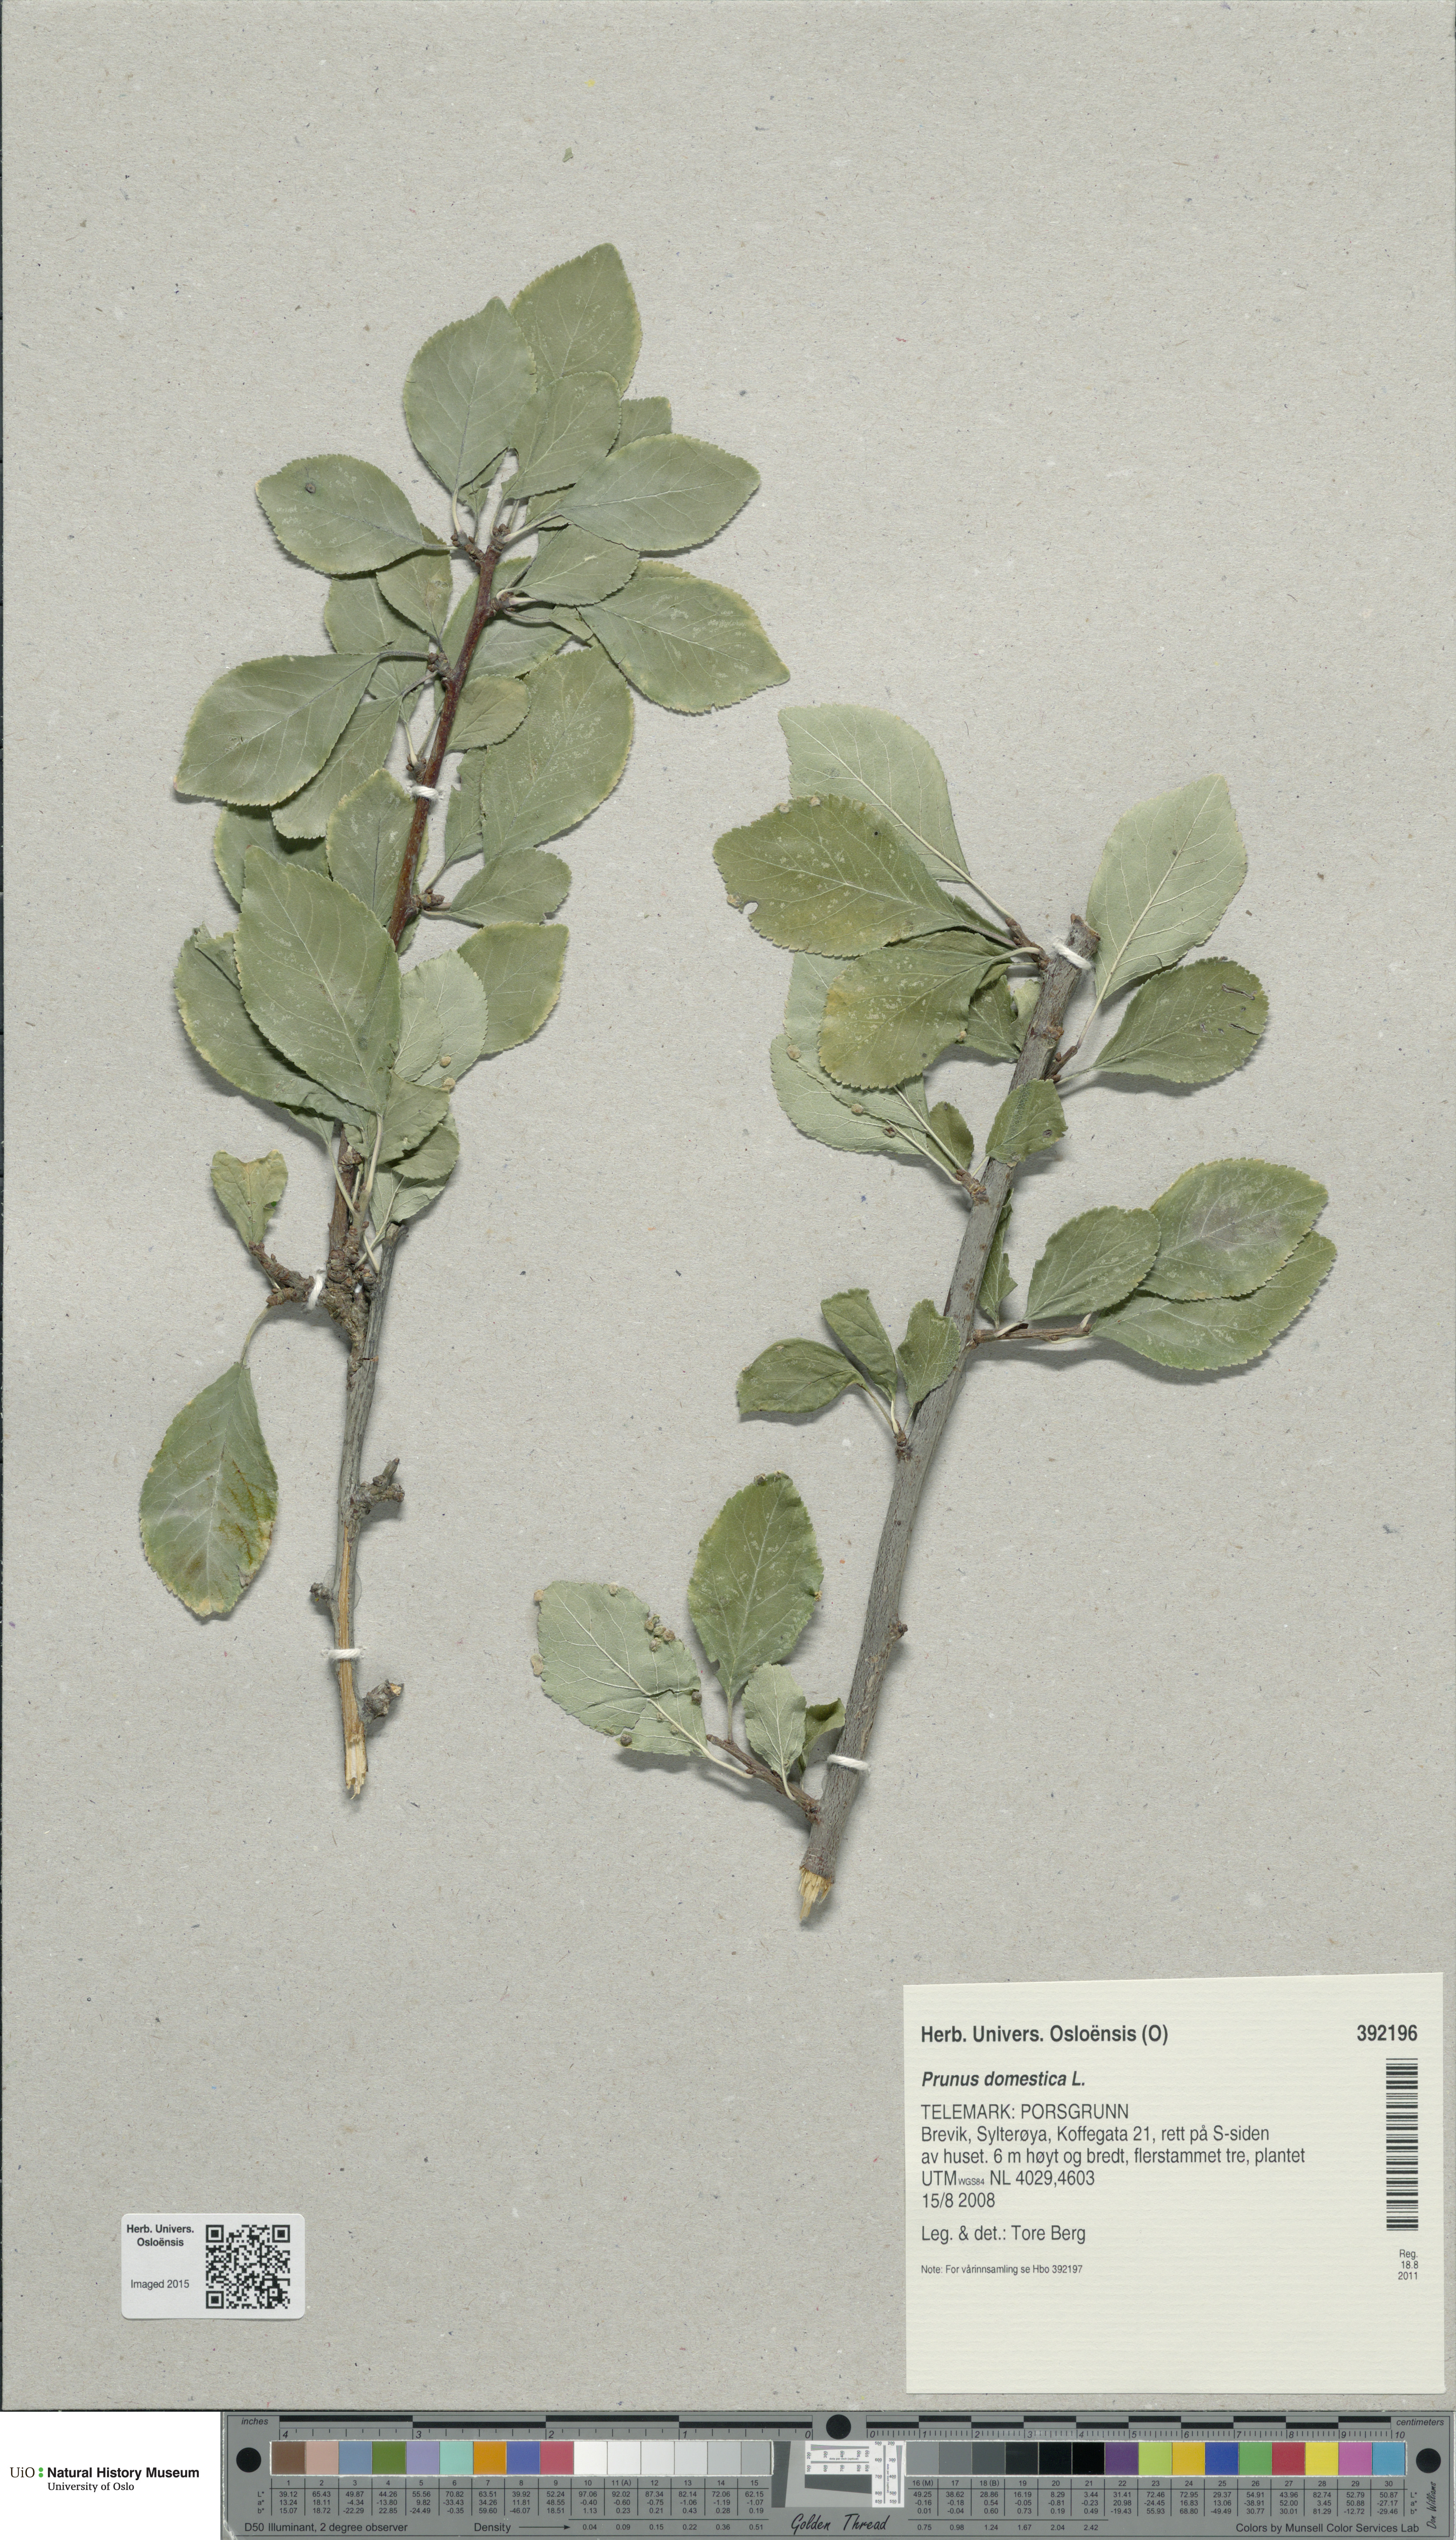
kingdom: Plantae
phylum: Tracheophyta
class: Magnoliopsida
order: Rosales
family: Rosaceae
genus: Prunus
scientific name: Prunus domestica
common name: Wild plum
